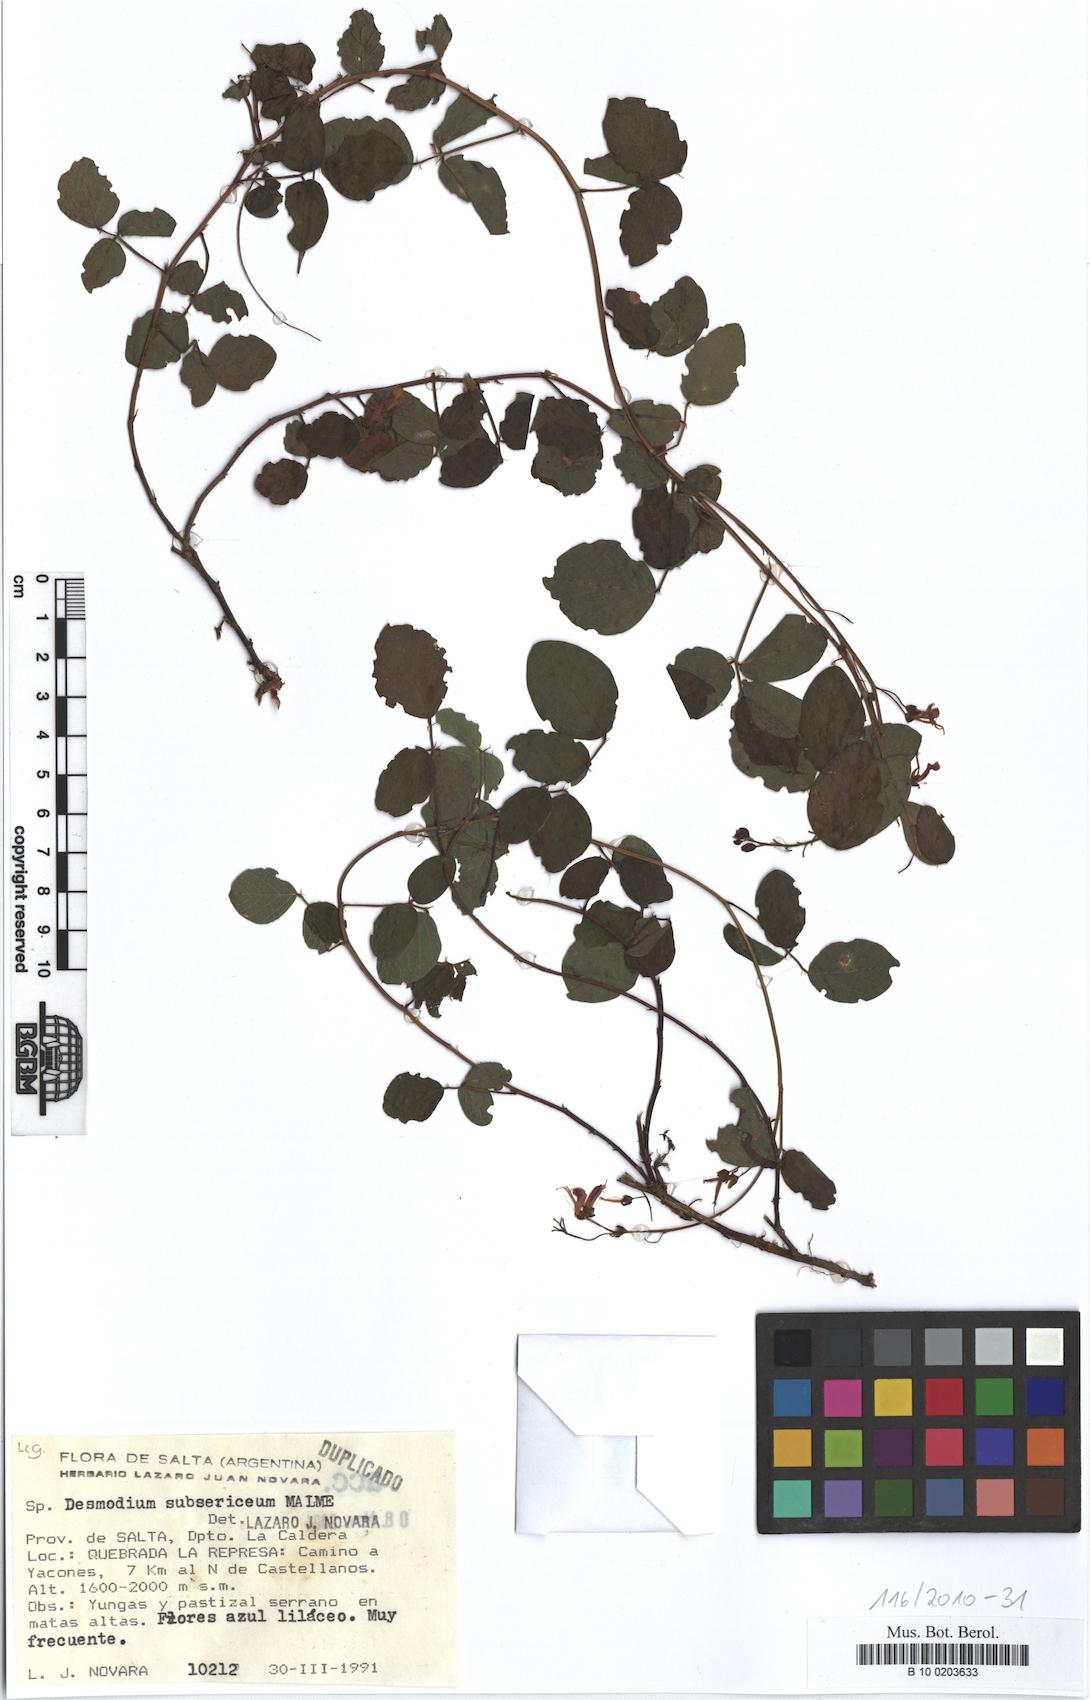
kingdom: Plantae
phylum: Tracheophyta
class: Magnoliopsida
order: Fabales
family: Fabaceae
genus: Desmodium
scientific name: Desmodium subsericeum
